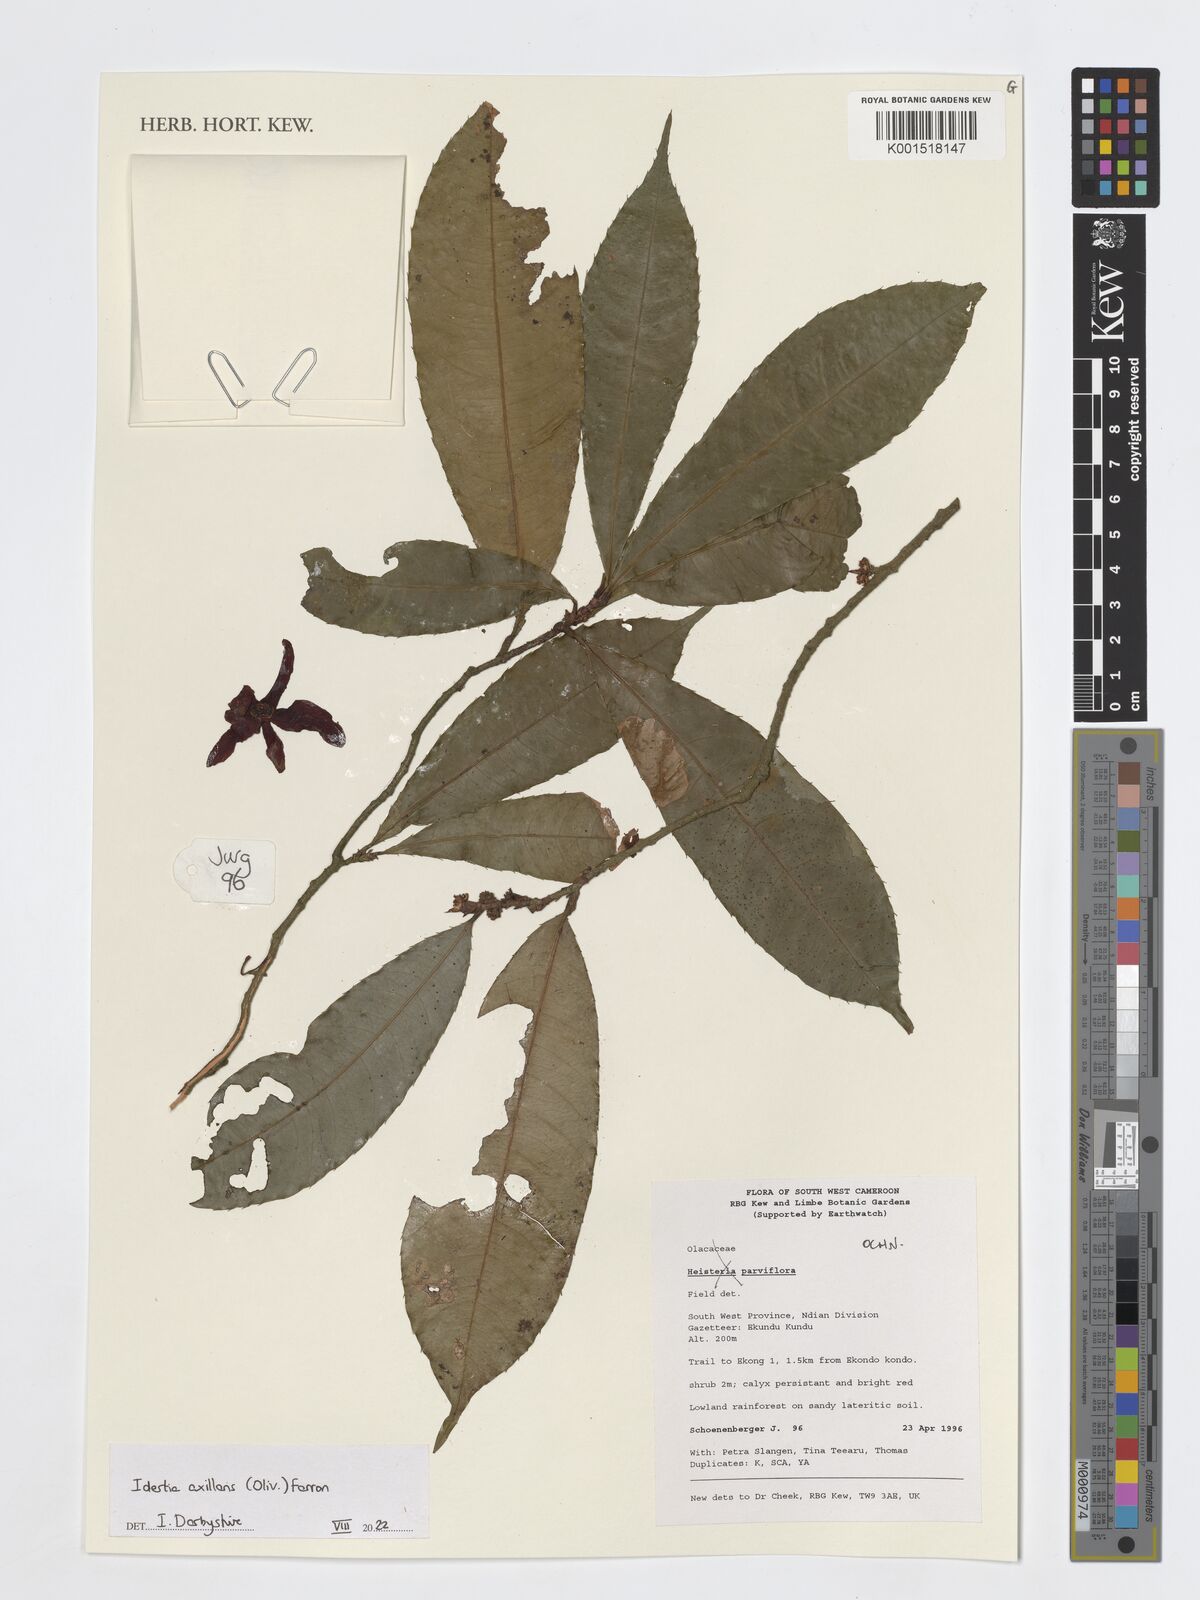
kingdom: Plantae
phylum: Tracheophyta
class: Magnoliopsida
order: Malpighiales
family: Ochnaceae
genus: Idertia
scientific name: Idertia axillaris
